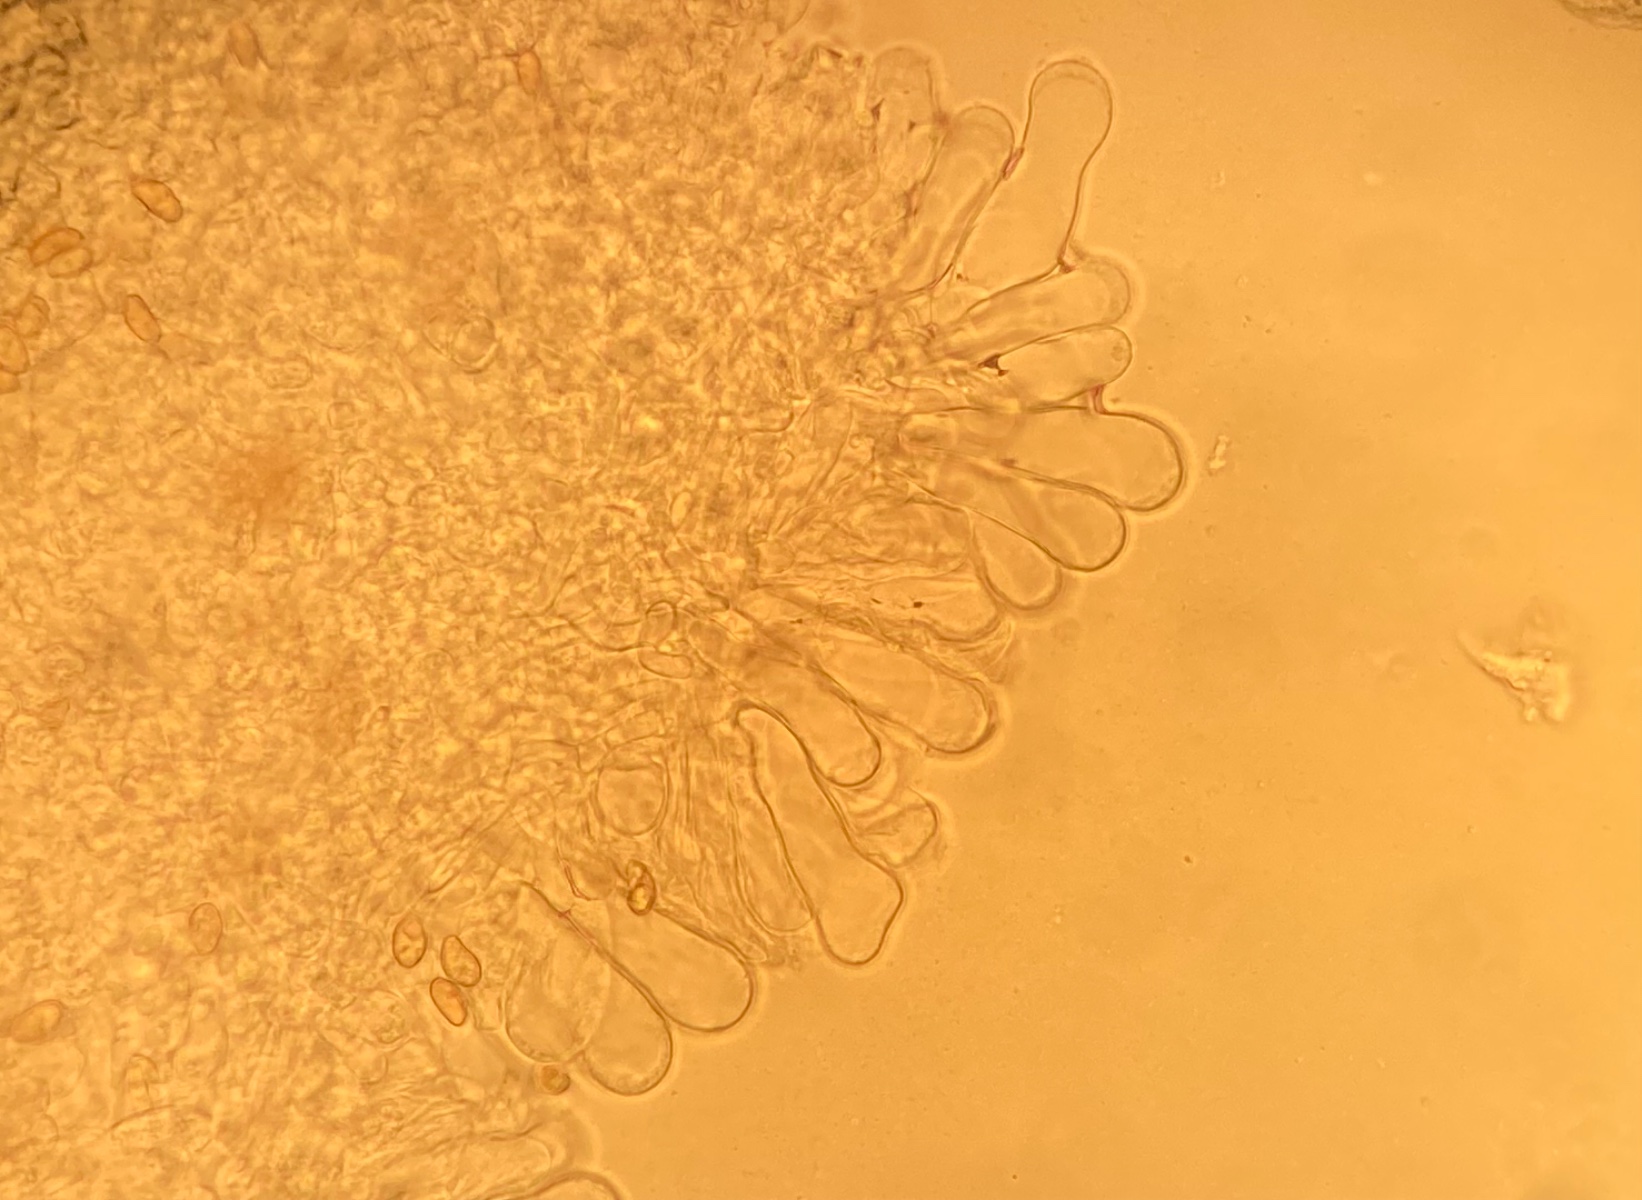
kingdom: Fungi
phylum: Basidiomycota
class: Agaricomycetes
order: Agaricales
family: Inocybaceae
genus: Inosperma
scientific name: Inosperma
